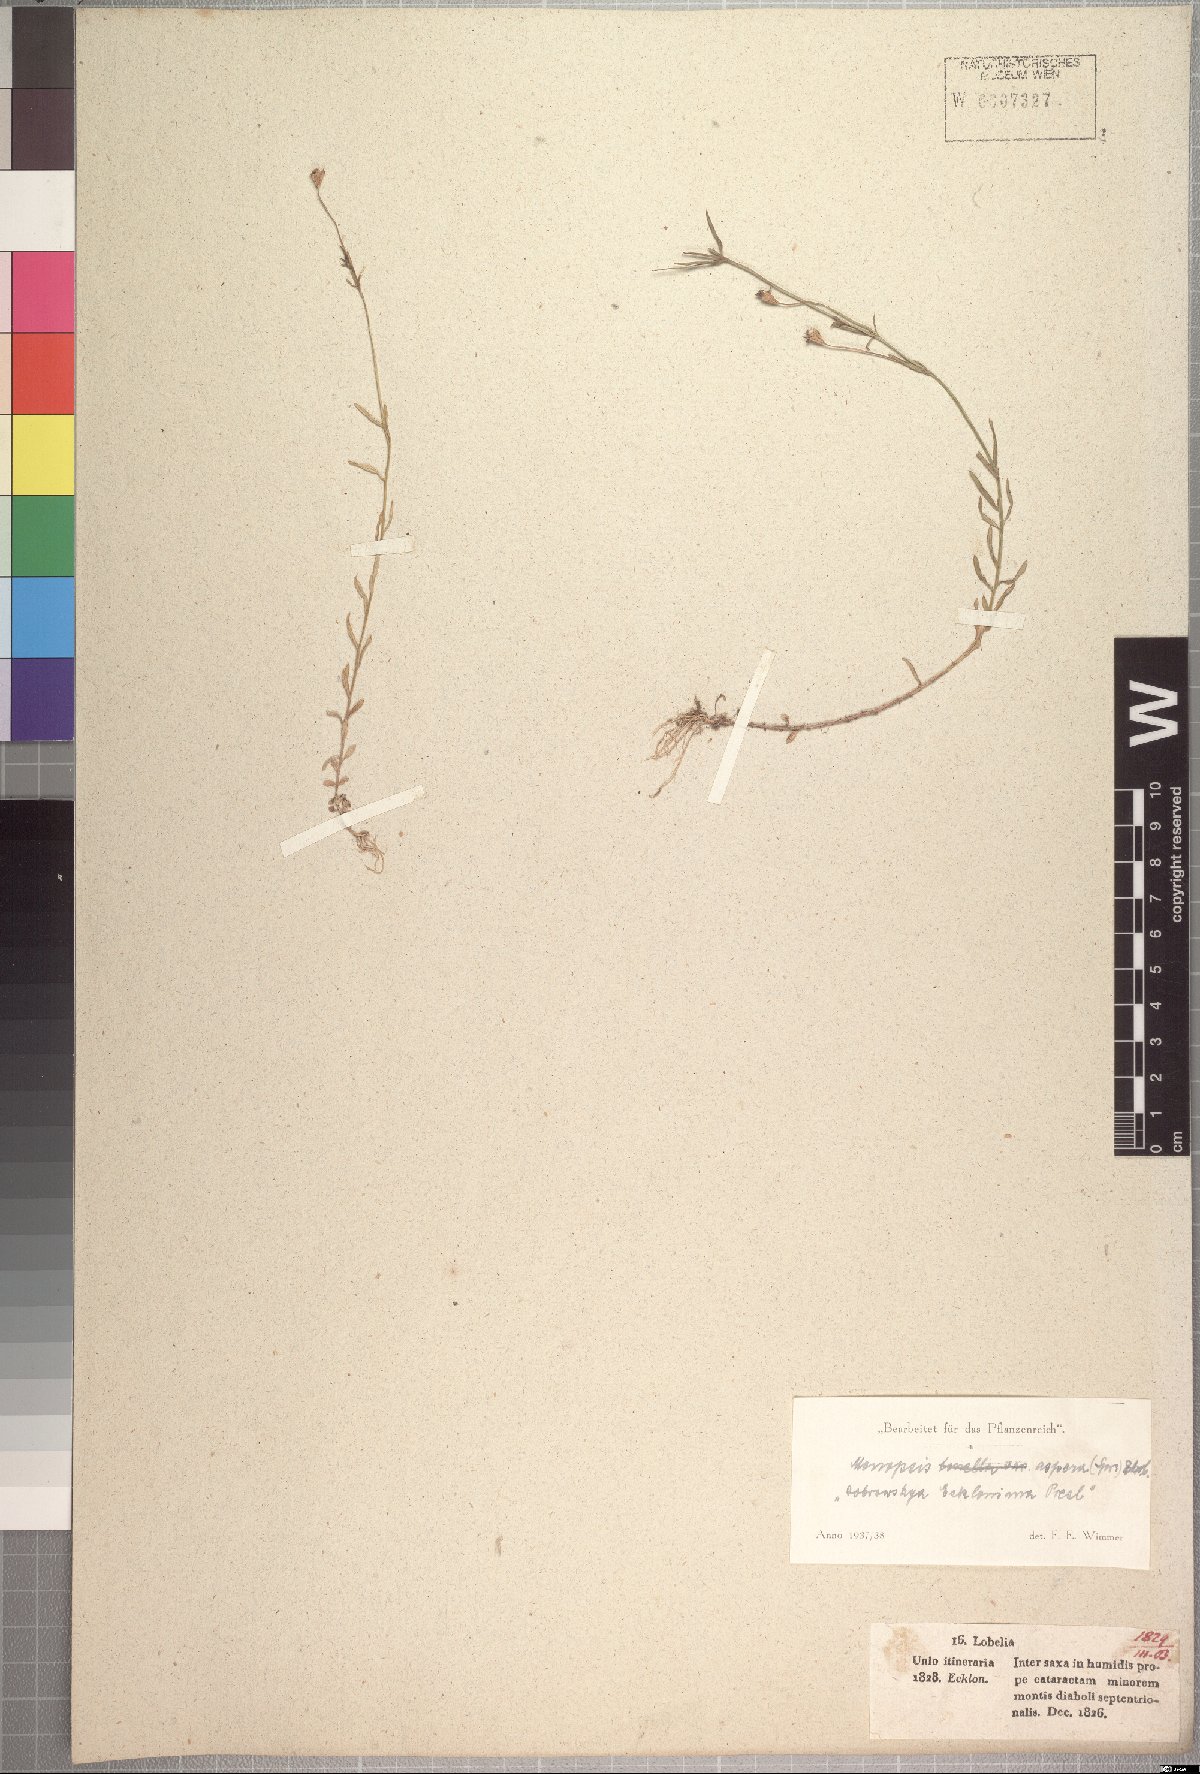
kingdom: Plantae
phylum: Tracheophyta
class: Magnoliopsida
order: Asterales
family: Campanulaceae
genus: Monopsis
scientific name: Monopsis simplex
